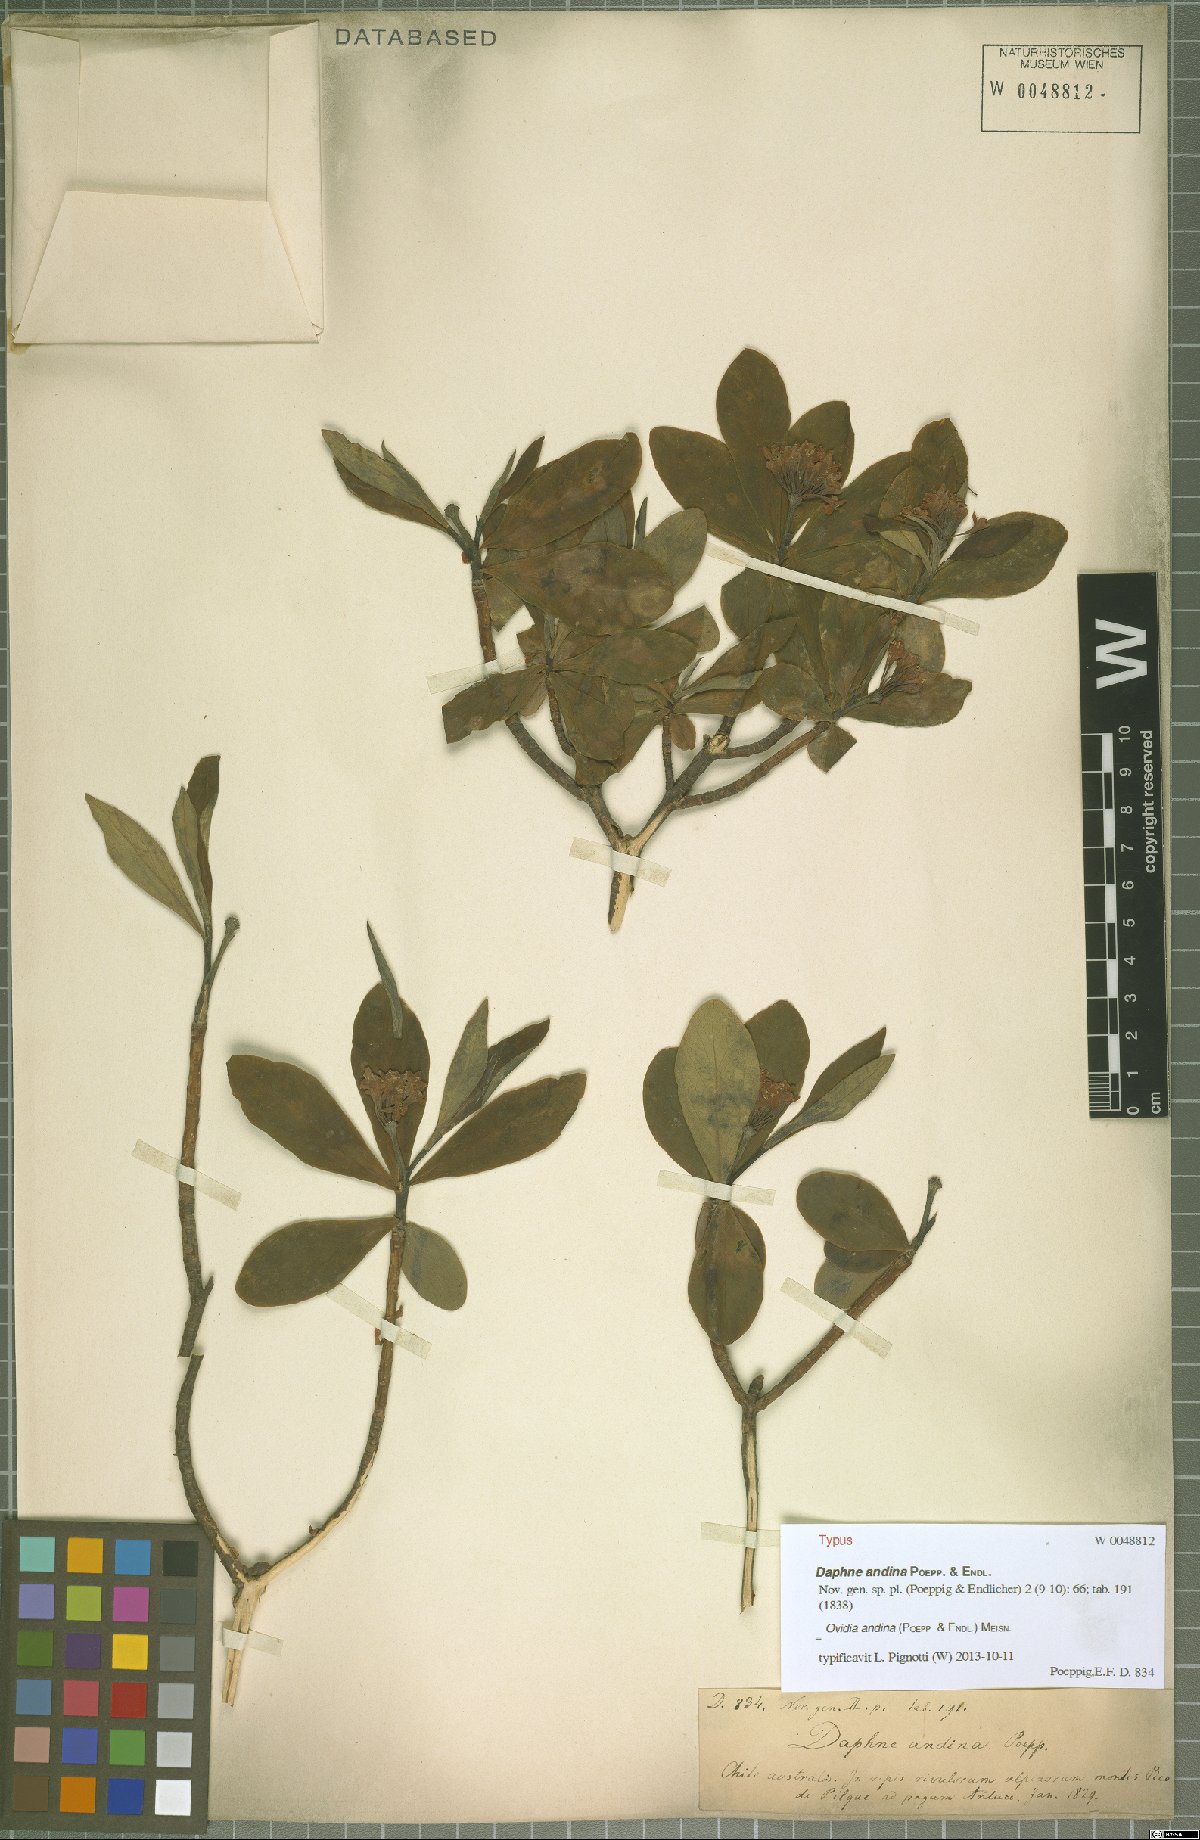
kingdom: Plantae
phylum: Tracheophyta
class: Magnoliopsida
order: Malvales
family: Thymelaeaceae
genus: Ovidia
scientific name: Ovidia andina
